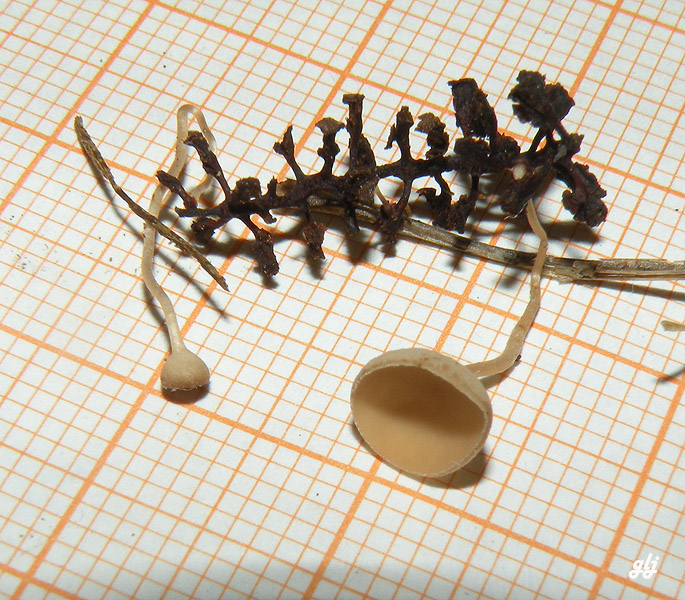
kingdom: Fungi
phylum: Ascomycota
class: Leotiomycetes
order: Helotiales
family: Sclerotiniaceae
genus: Ciboria
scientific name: Ciboria amentacea
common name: ellerakle-knoldskive
